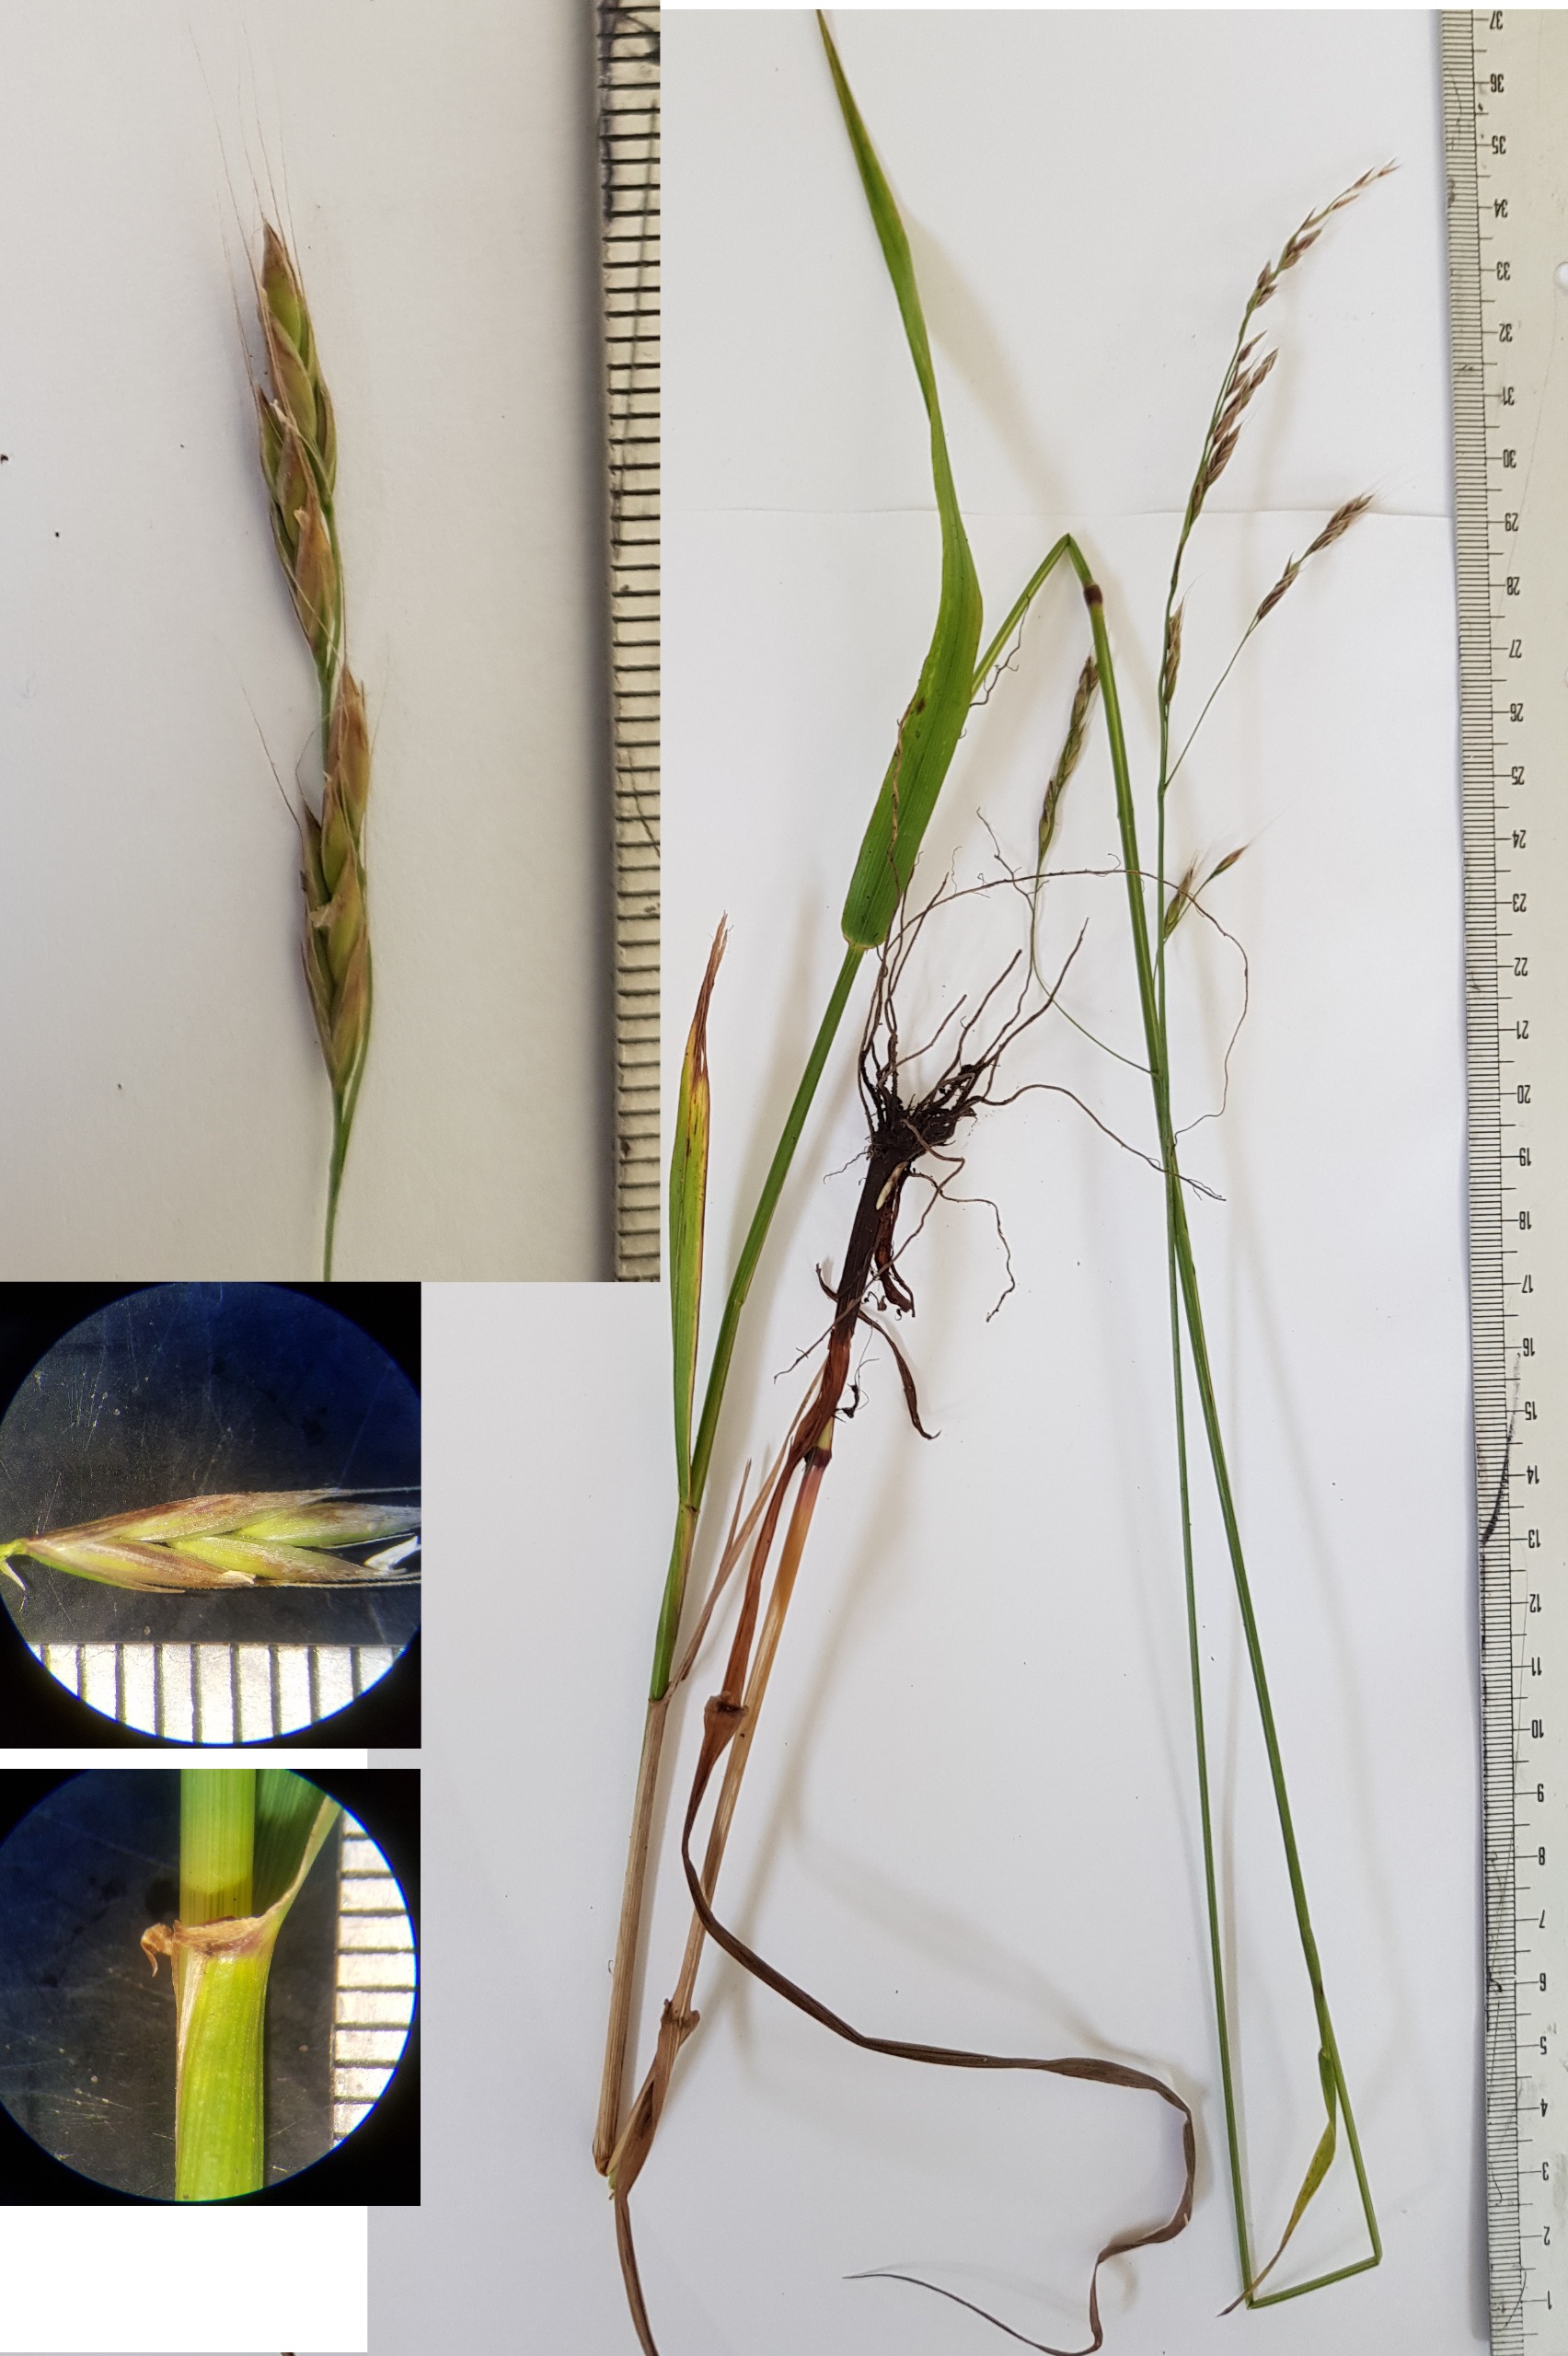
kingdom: Plantae
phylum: Tracheophyta
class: Liliopsida
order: Poales
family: Poaceae
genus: Lolium
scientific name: Lolium giganteum
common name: Kæmpe-svingel
